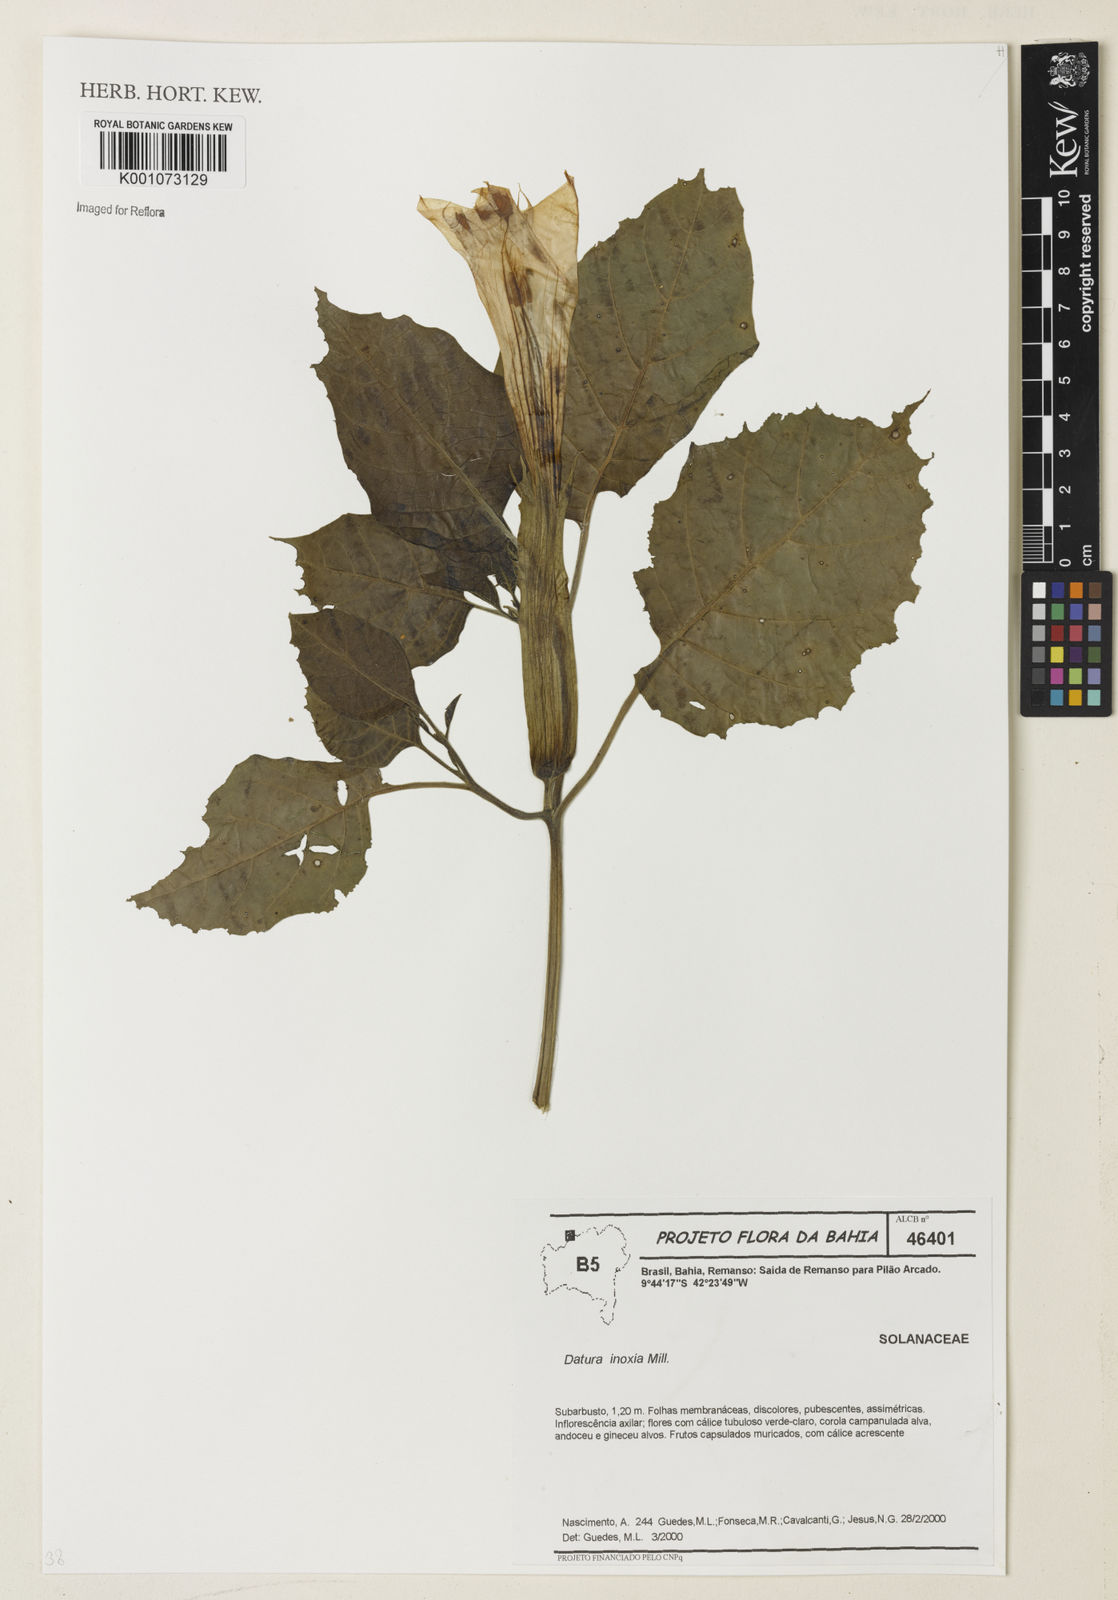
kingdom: Plantae
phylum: Tracheophyta
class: Magnoliopsida
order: Solanales
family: Solanaceae
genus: Datura
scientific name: Datura
